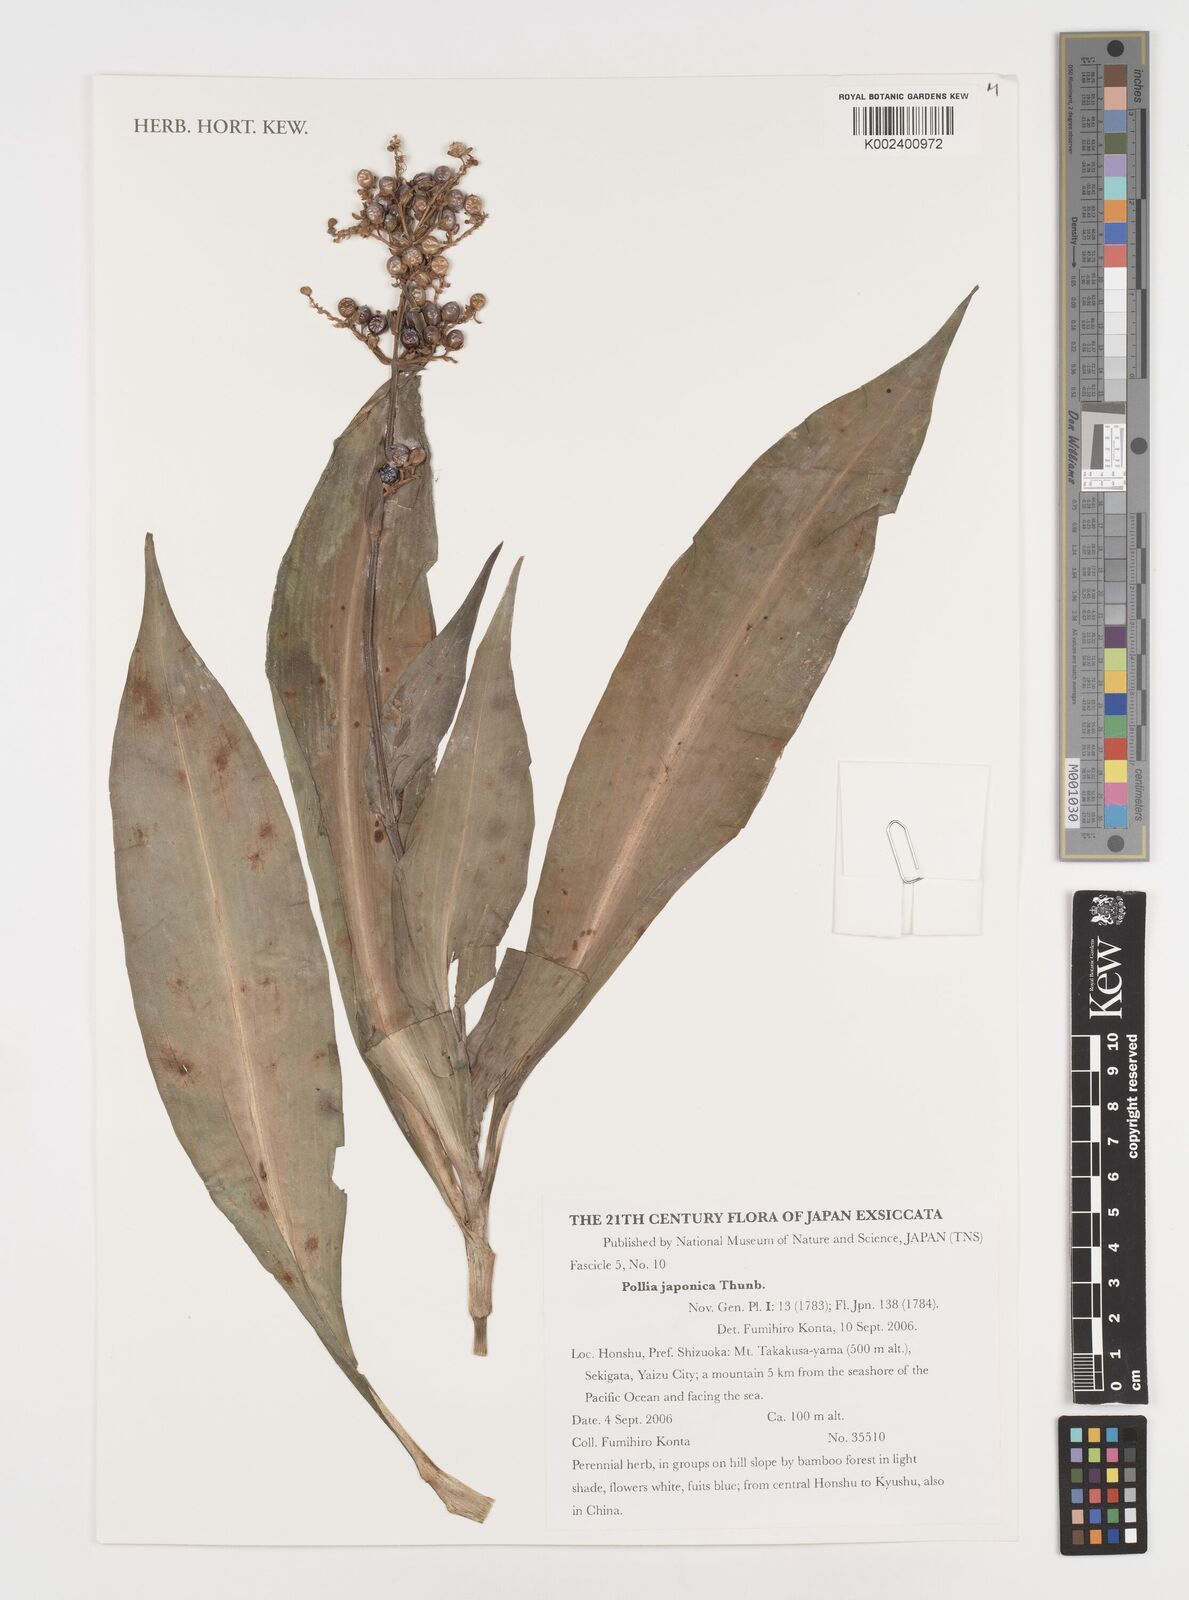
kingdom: Plantae
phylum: Tracheophyta
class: Liliopsida
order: Commelinales
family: Commelinaceae
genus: Pollia
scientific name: Pollia japonica
